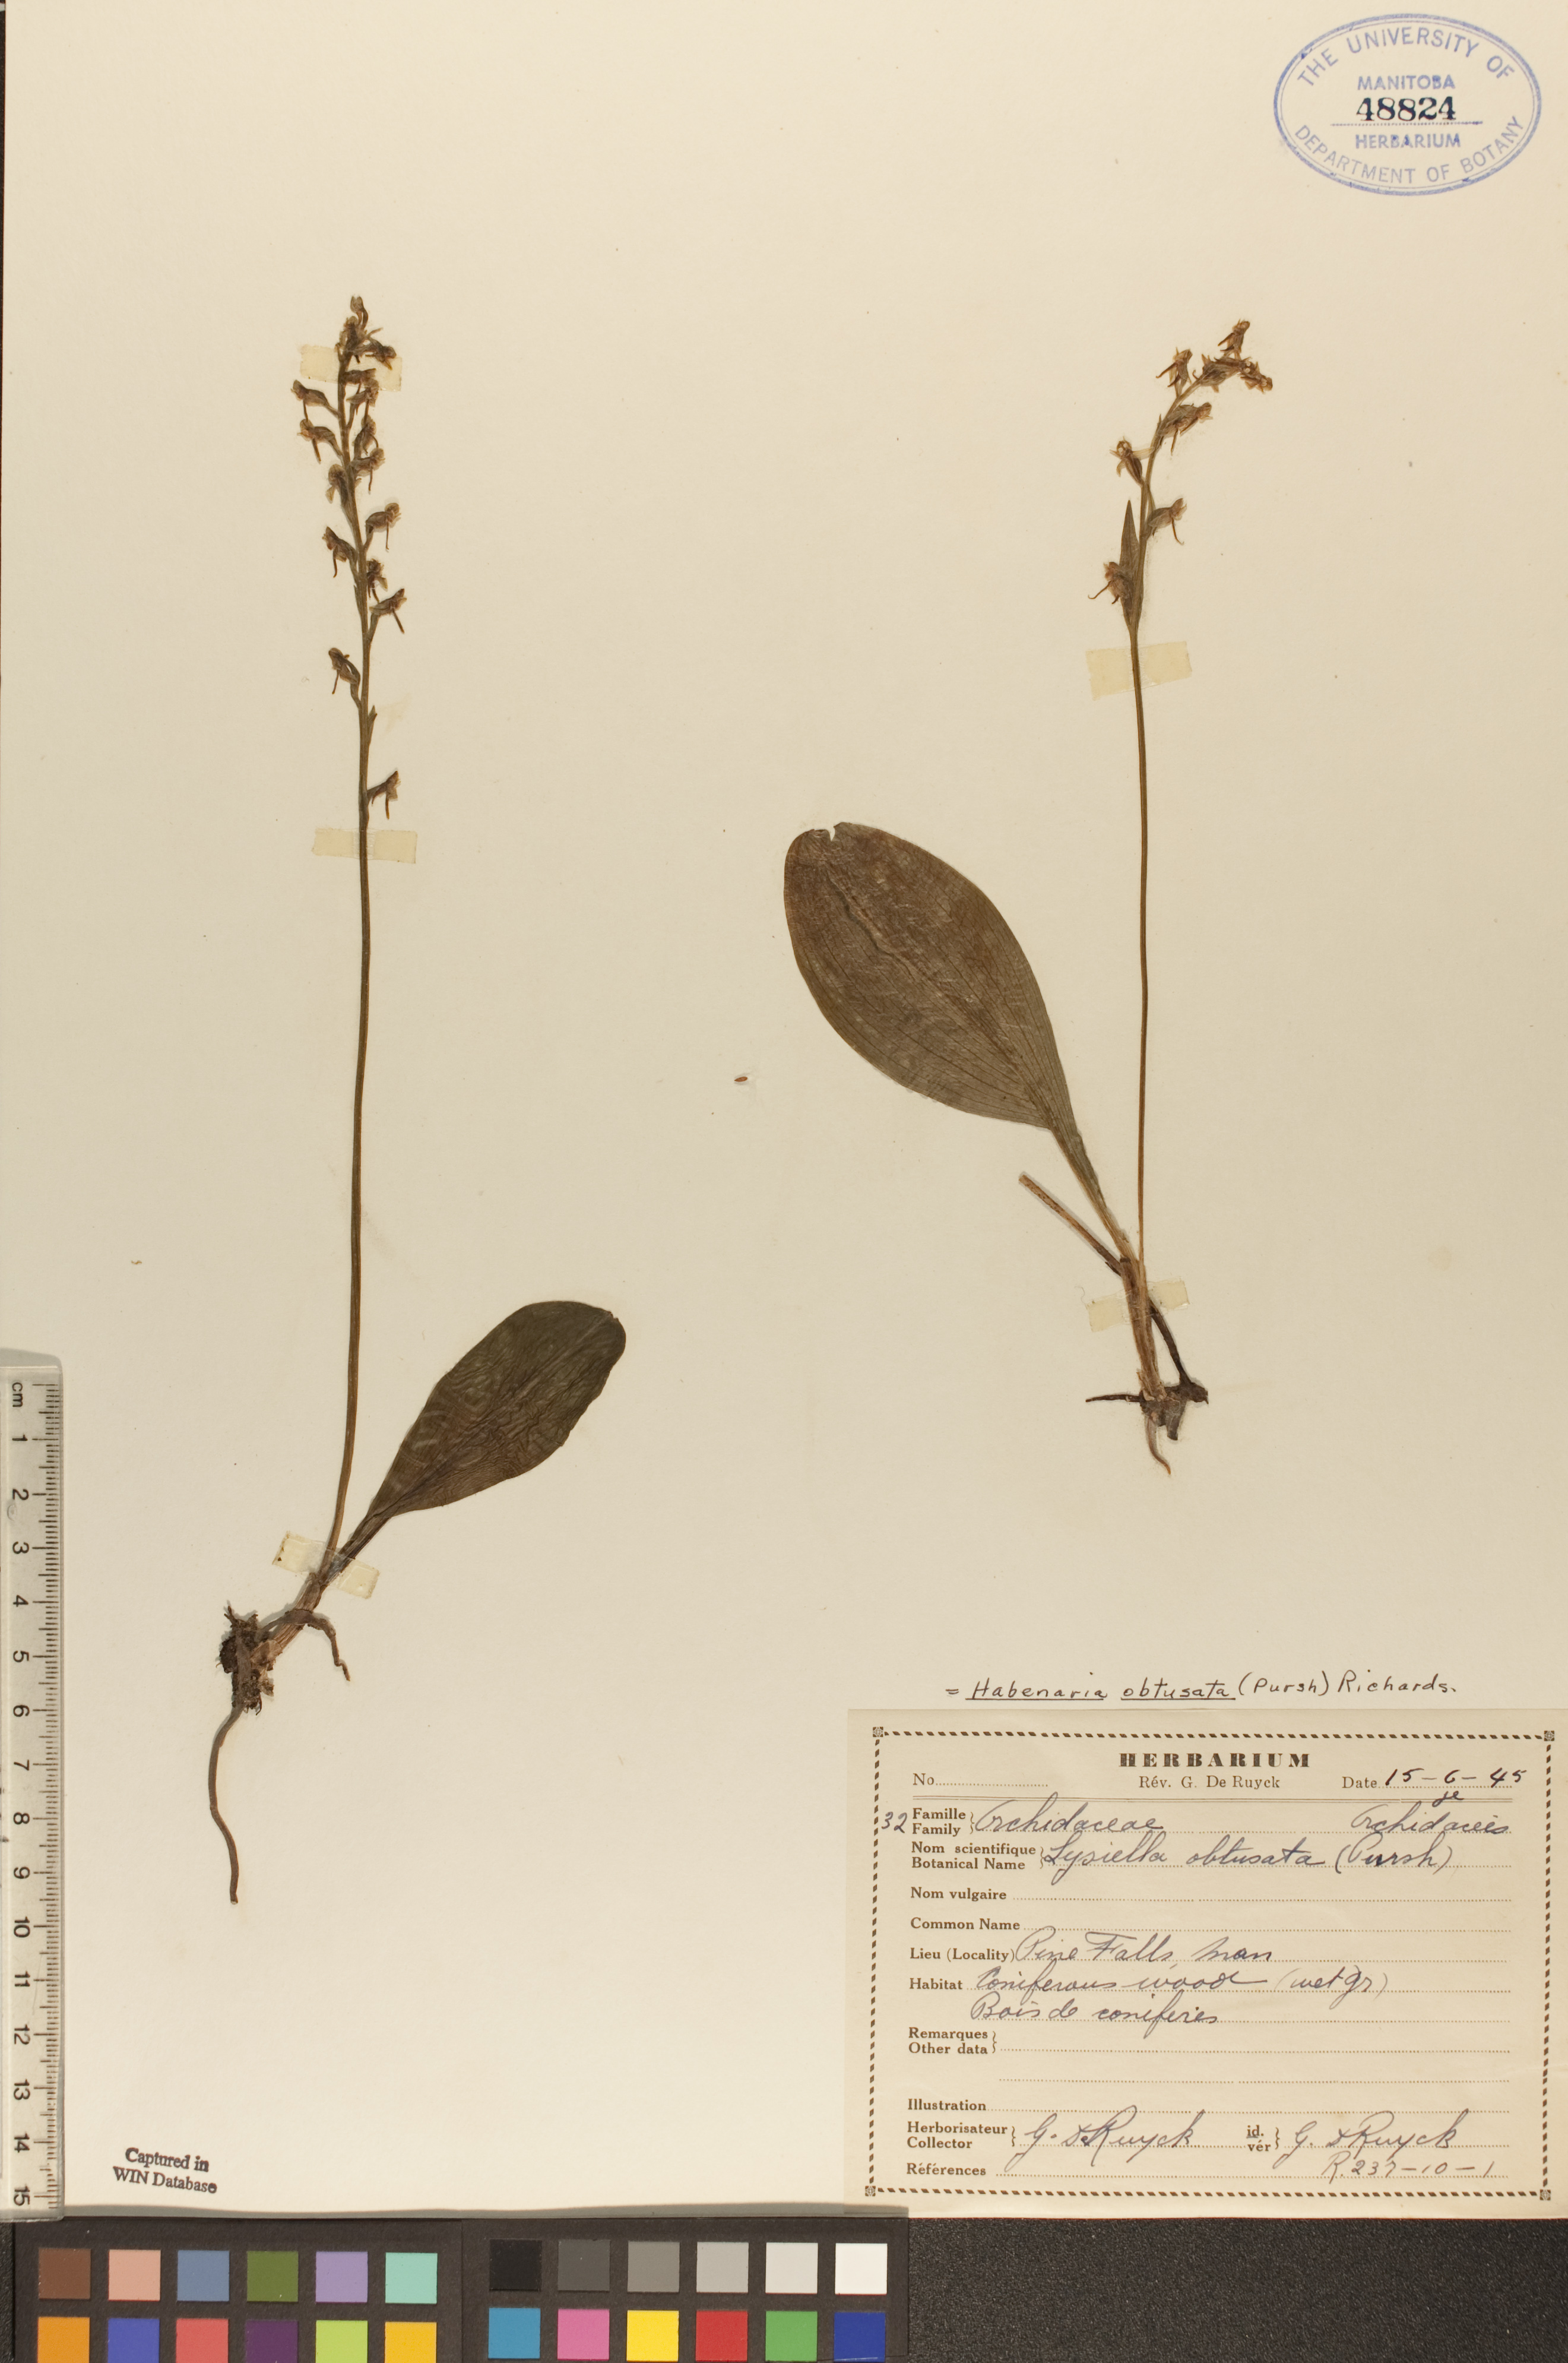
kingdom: Plantae
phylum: Tracheophyta
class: Liliopsida
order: Asparagales
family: Orchidaceae
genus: Platanthera
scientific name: Platanthera obtusata
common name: Blunt bog orchid
